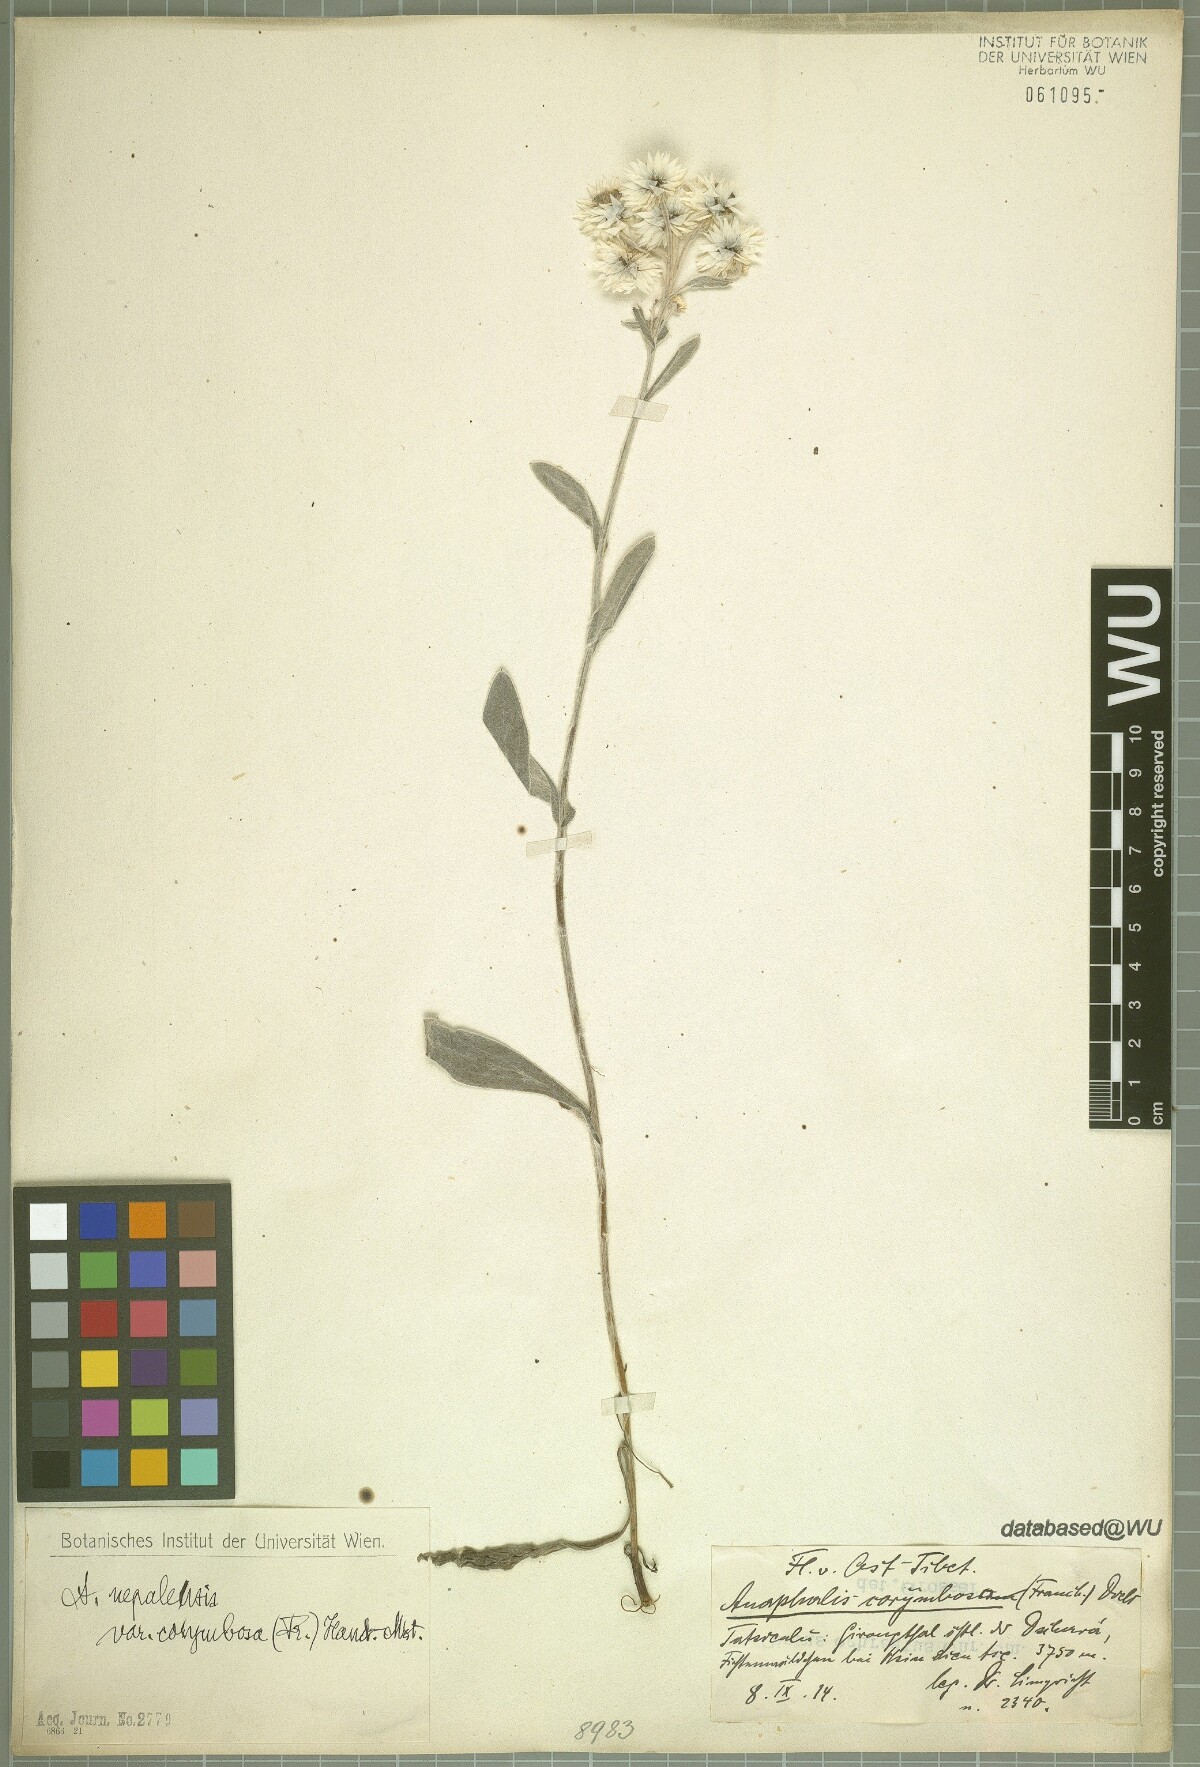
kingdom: Plantae
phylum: Tracheophyta
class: Magnoliopsida
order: Asterales
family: Asteraceae
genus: Anaphalis
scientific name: Anaphalis corymbosa
